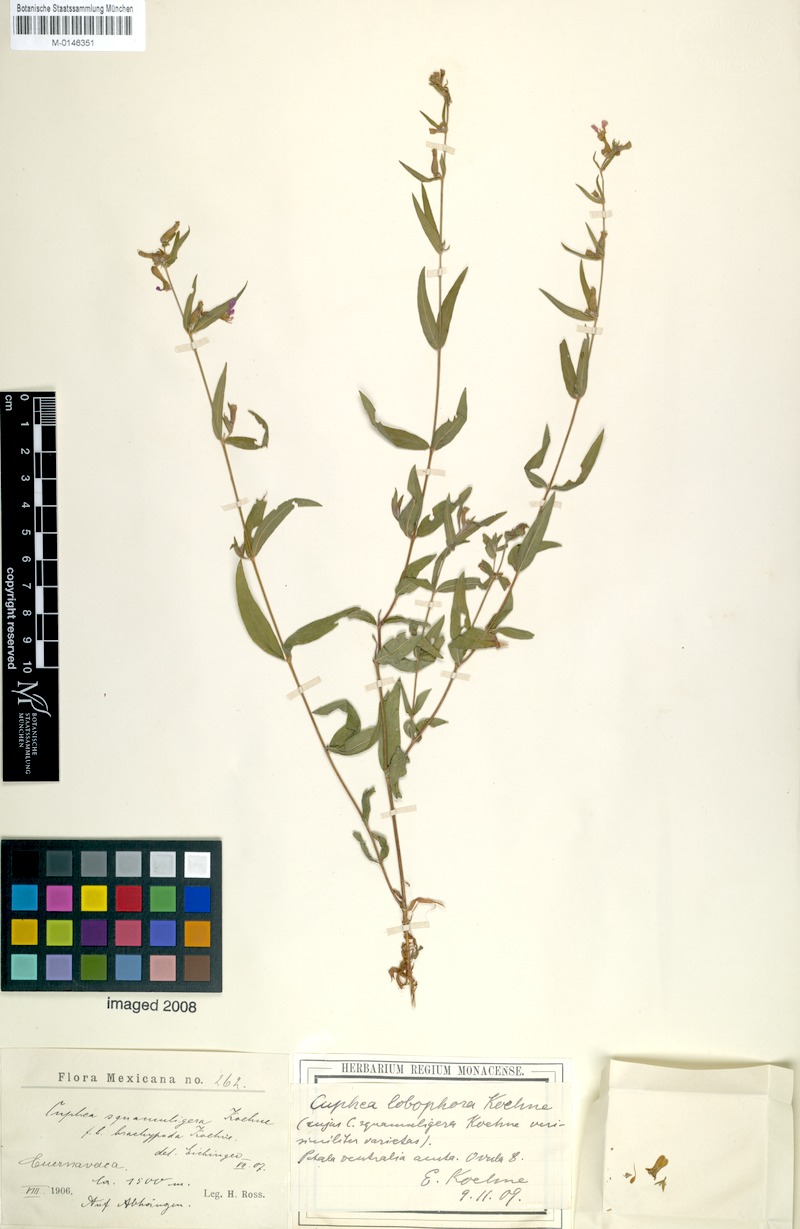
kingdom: Plantae
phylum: Tracheophyta
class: Magnoliopsida
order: Myrtales
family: Lythraceae
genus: Cuphea
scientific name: Cuphea lobophora
